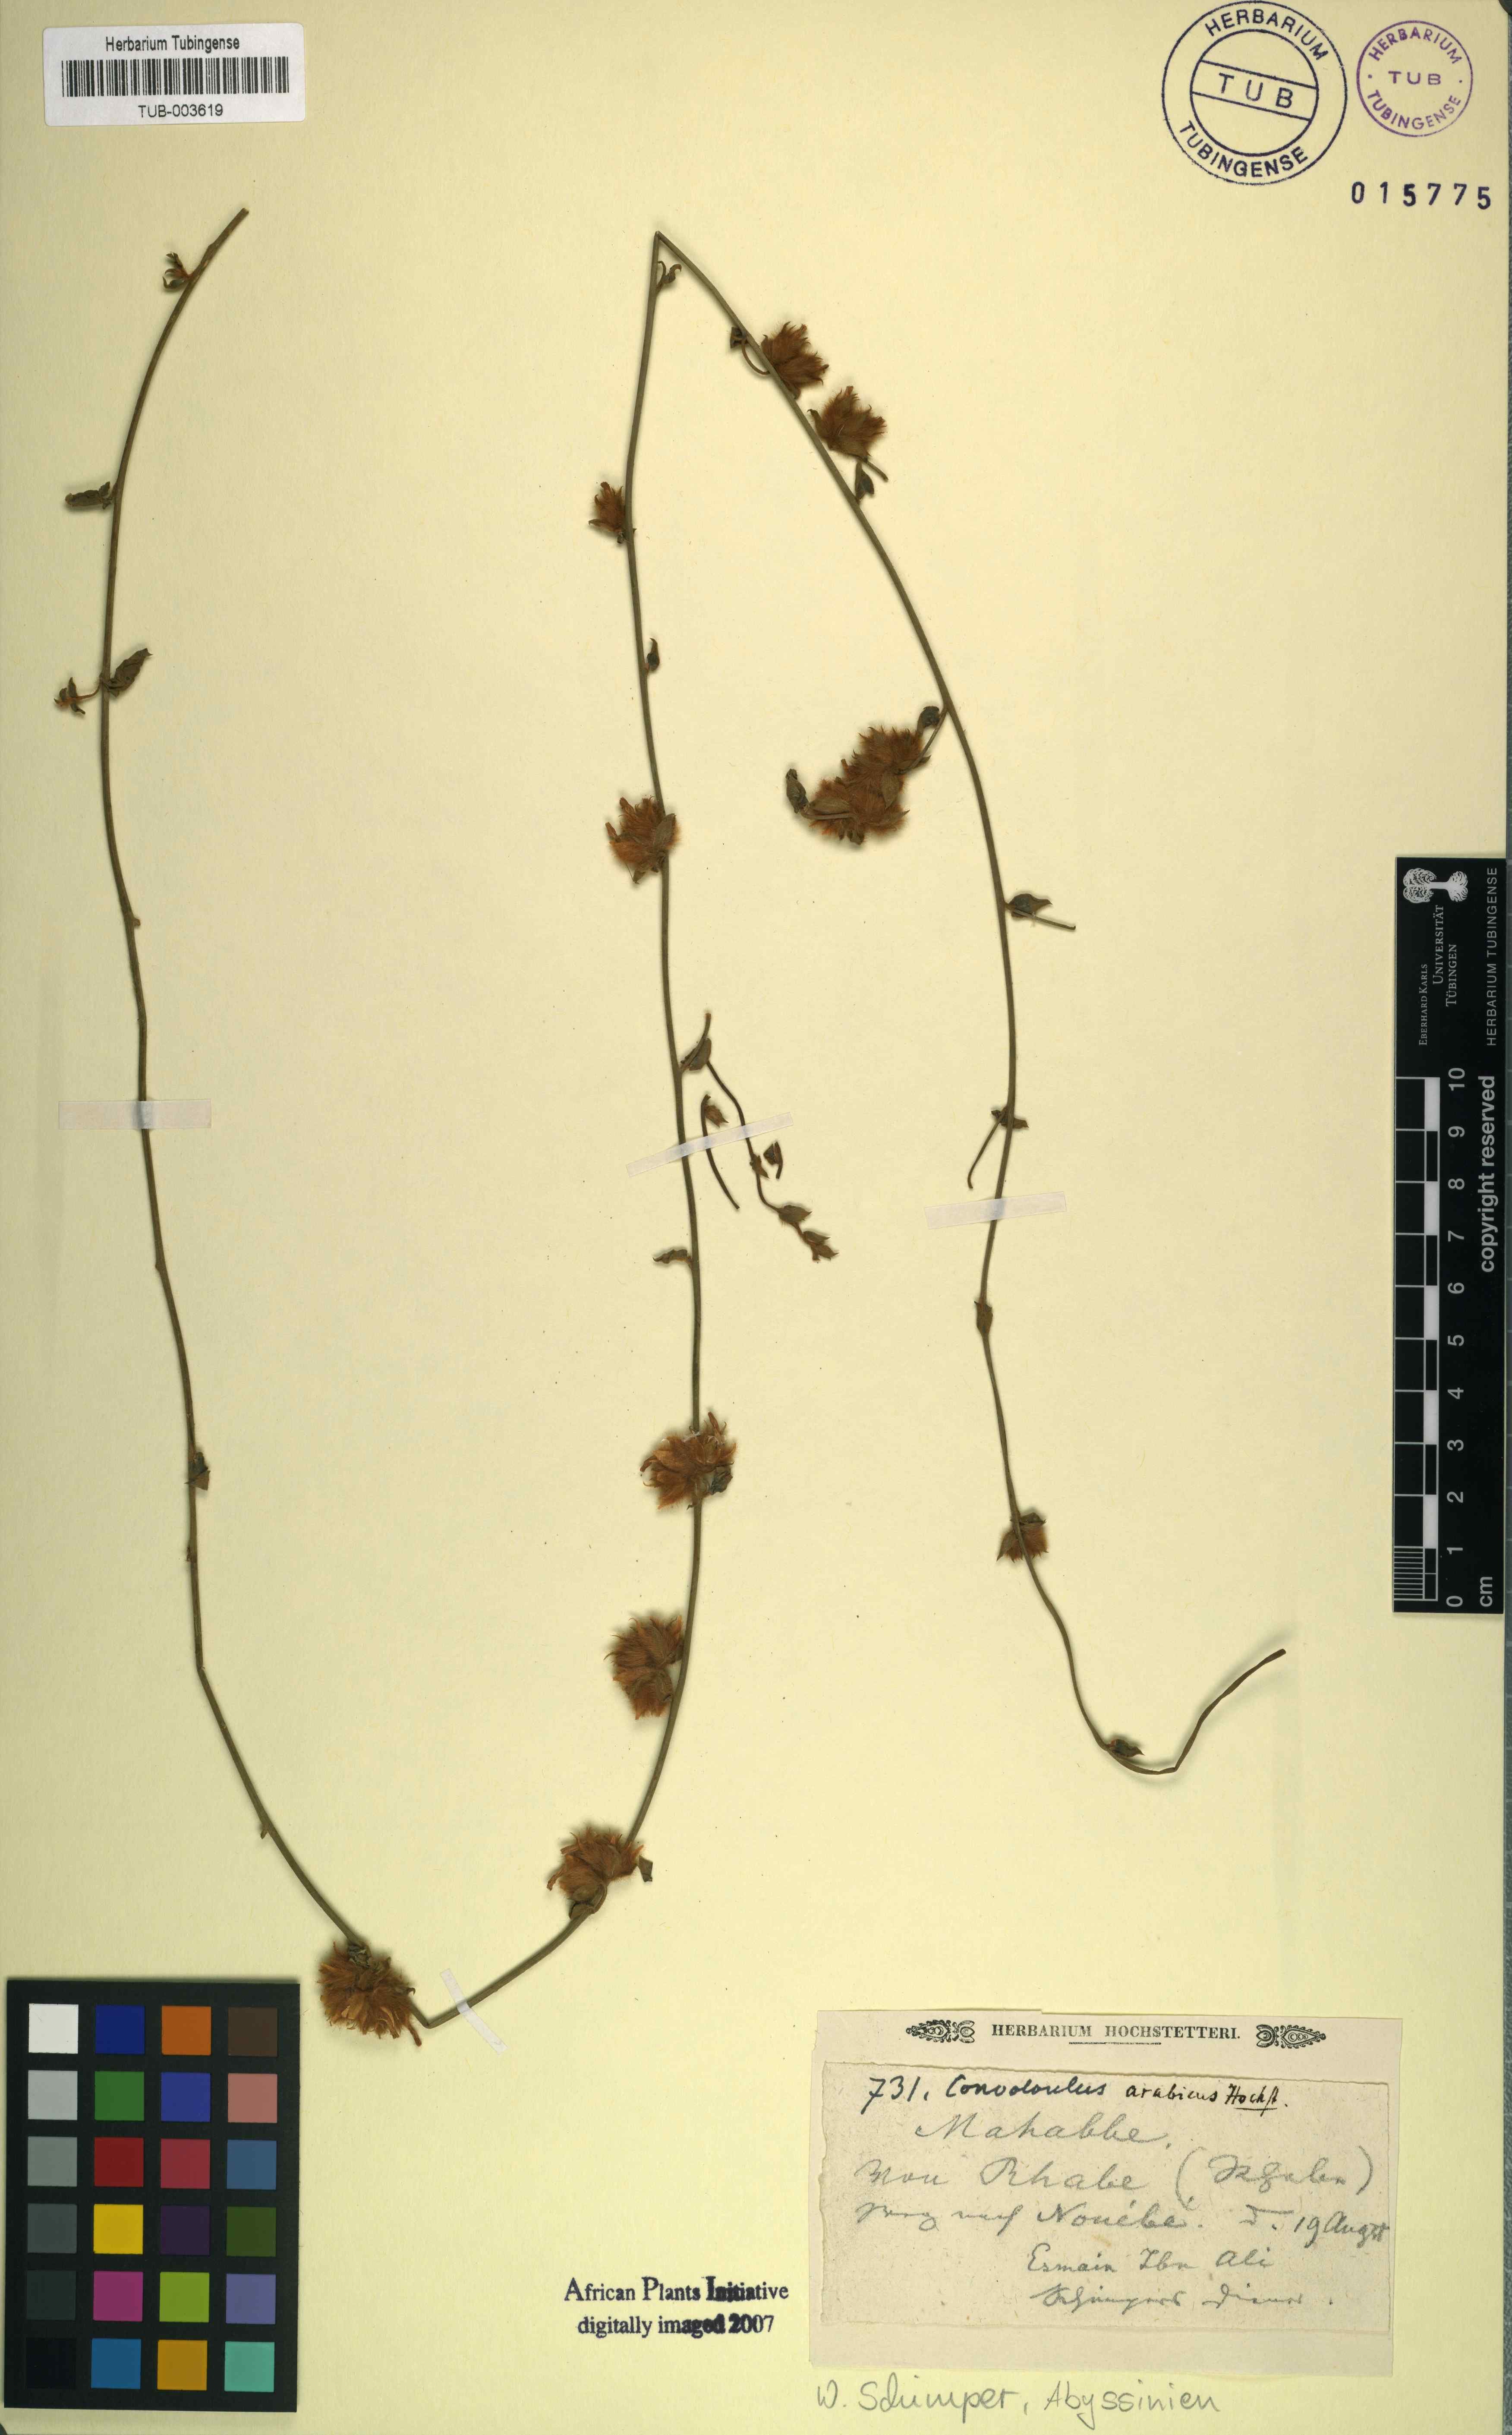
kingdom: Plantae
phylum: Tracheophyta
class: Magnoliopsida
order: Solanales
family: Convolvulaceae
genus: Convolvulus
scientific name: Convolvulus glomeratus
